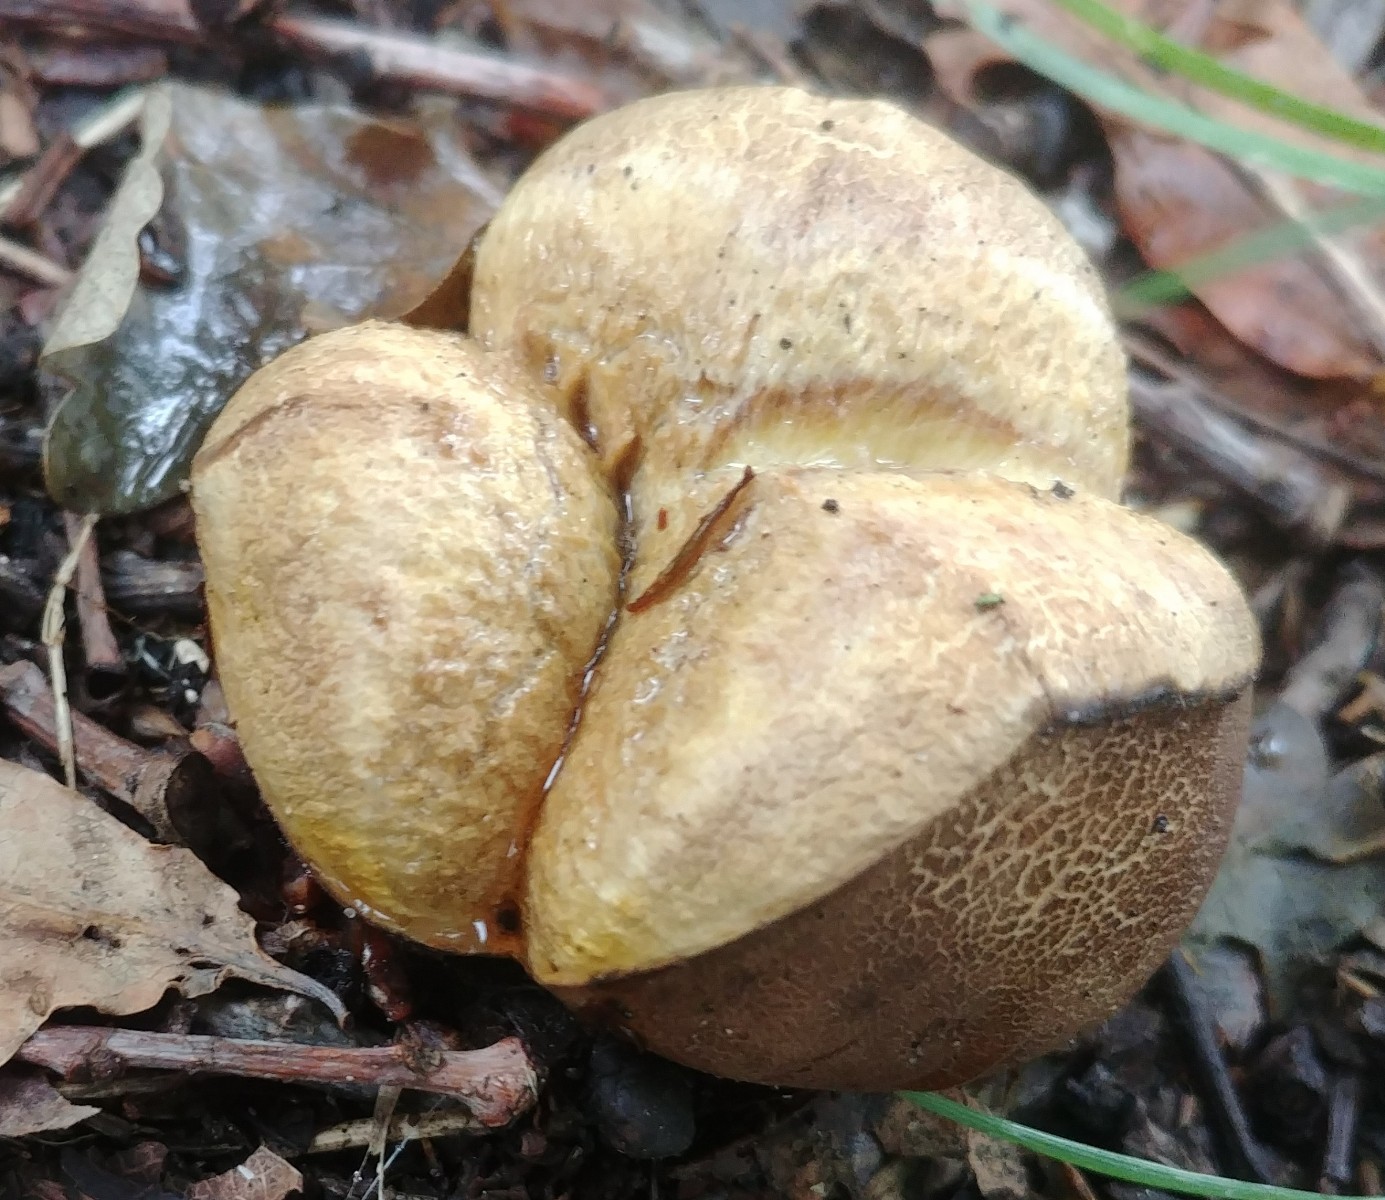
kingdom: Fungi
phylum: Basidiomycota
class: Agaricomycetes
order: Boletales
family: Sclerodermataceae
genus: Scleroderma
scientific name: Scleroderma
